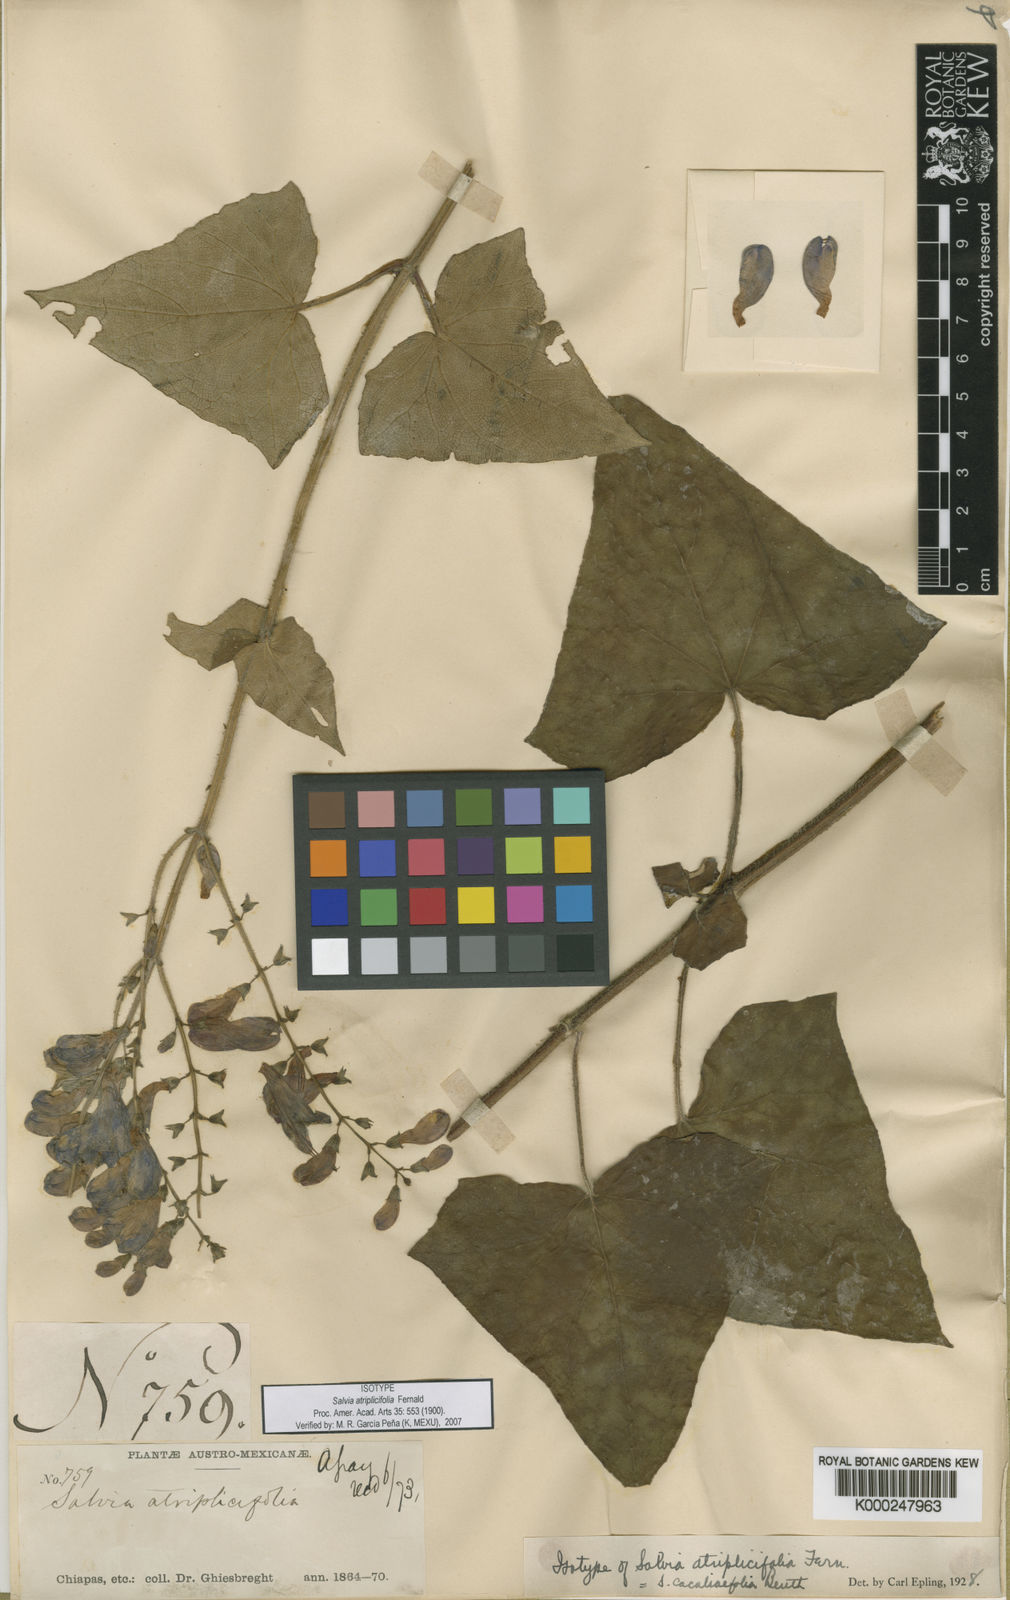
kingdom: Plantae
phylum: Tracheophyta
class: Magnoliopsida
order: Lamiales
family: Lamiaceae
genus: Salvia
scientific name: Salvia cacaliifolia
